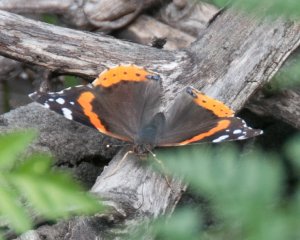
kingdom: Animalia
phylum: Arthropoda
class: Insecta
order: Lepidoptera
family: Nymphalidae
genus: Vanessa
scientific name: Vanessa atalanta
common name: Red Admiral
